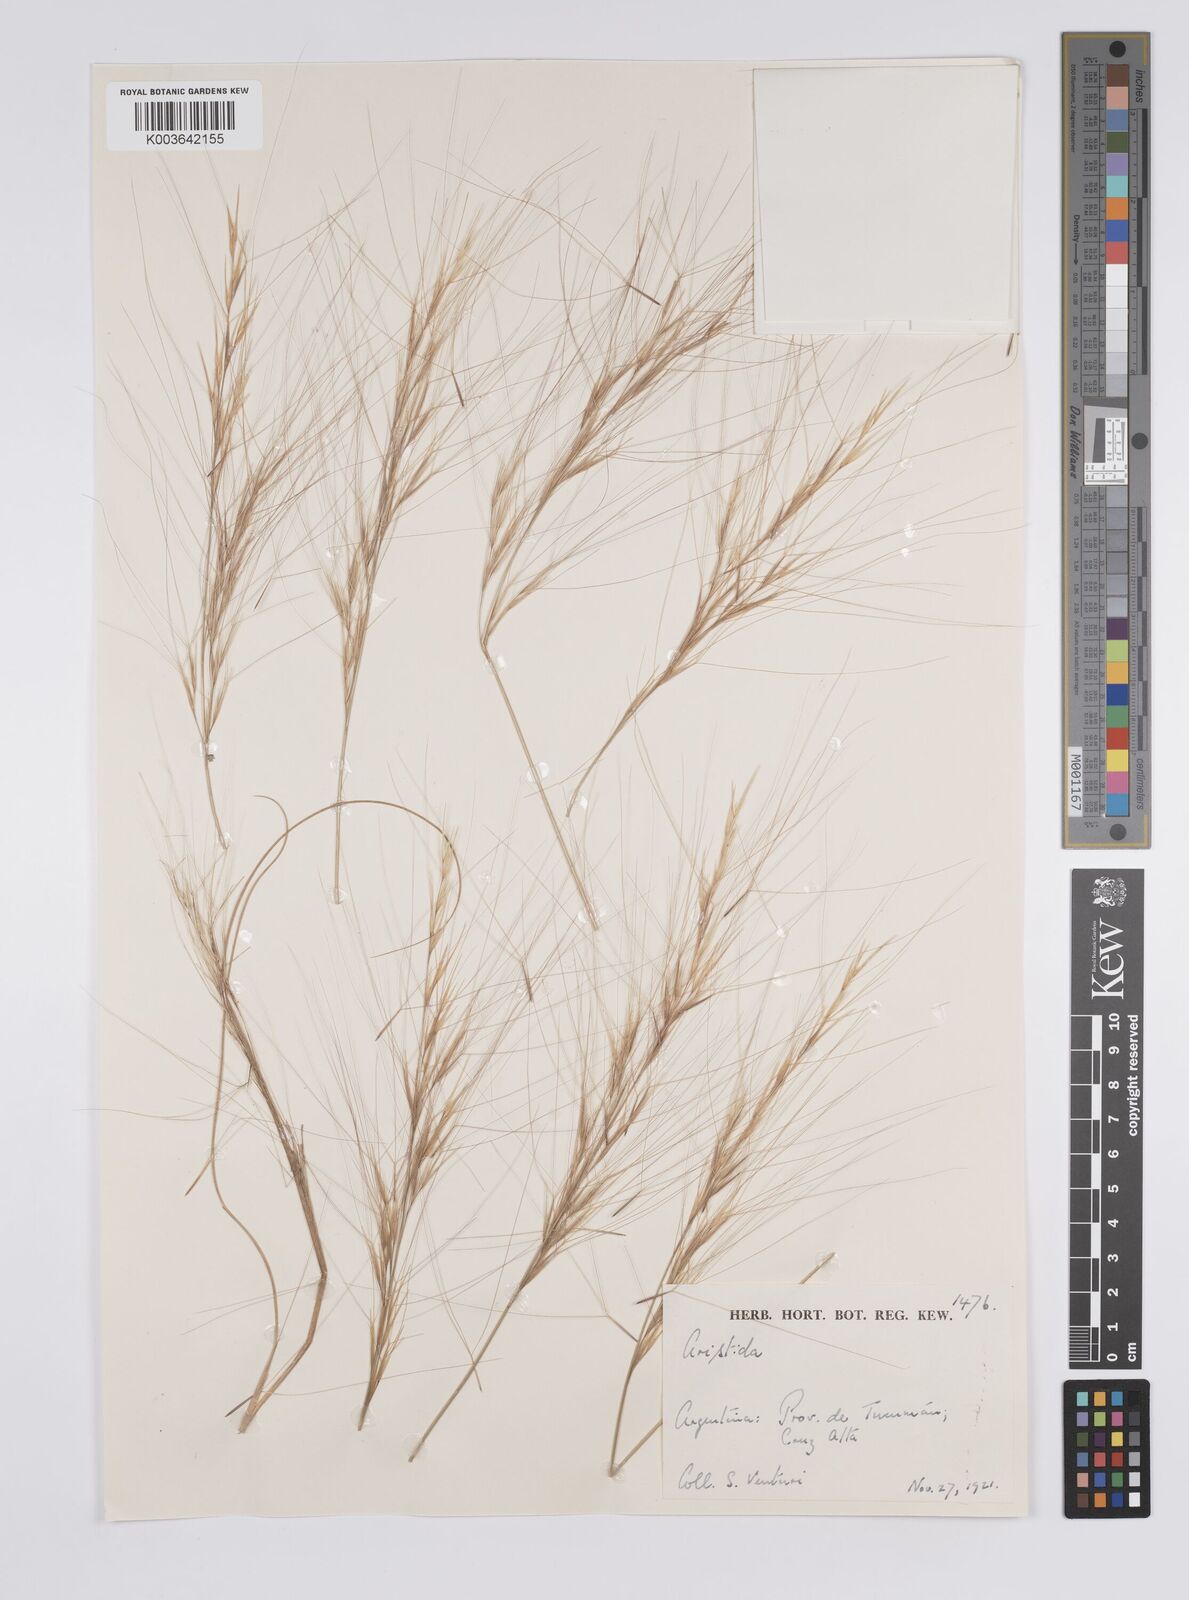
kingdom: Plantae
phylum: Tracheophyta
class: Liliopsida
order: Poales
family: Poaceae
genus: Aristida
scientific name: Aristida
